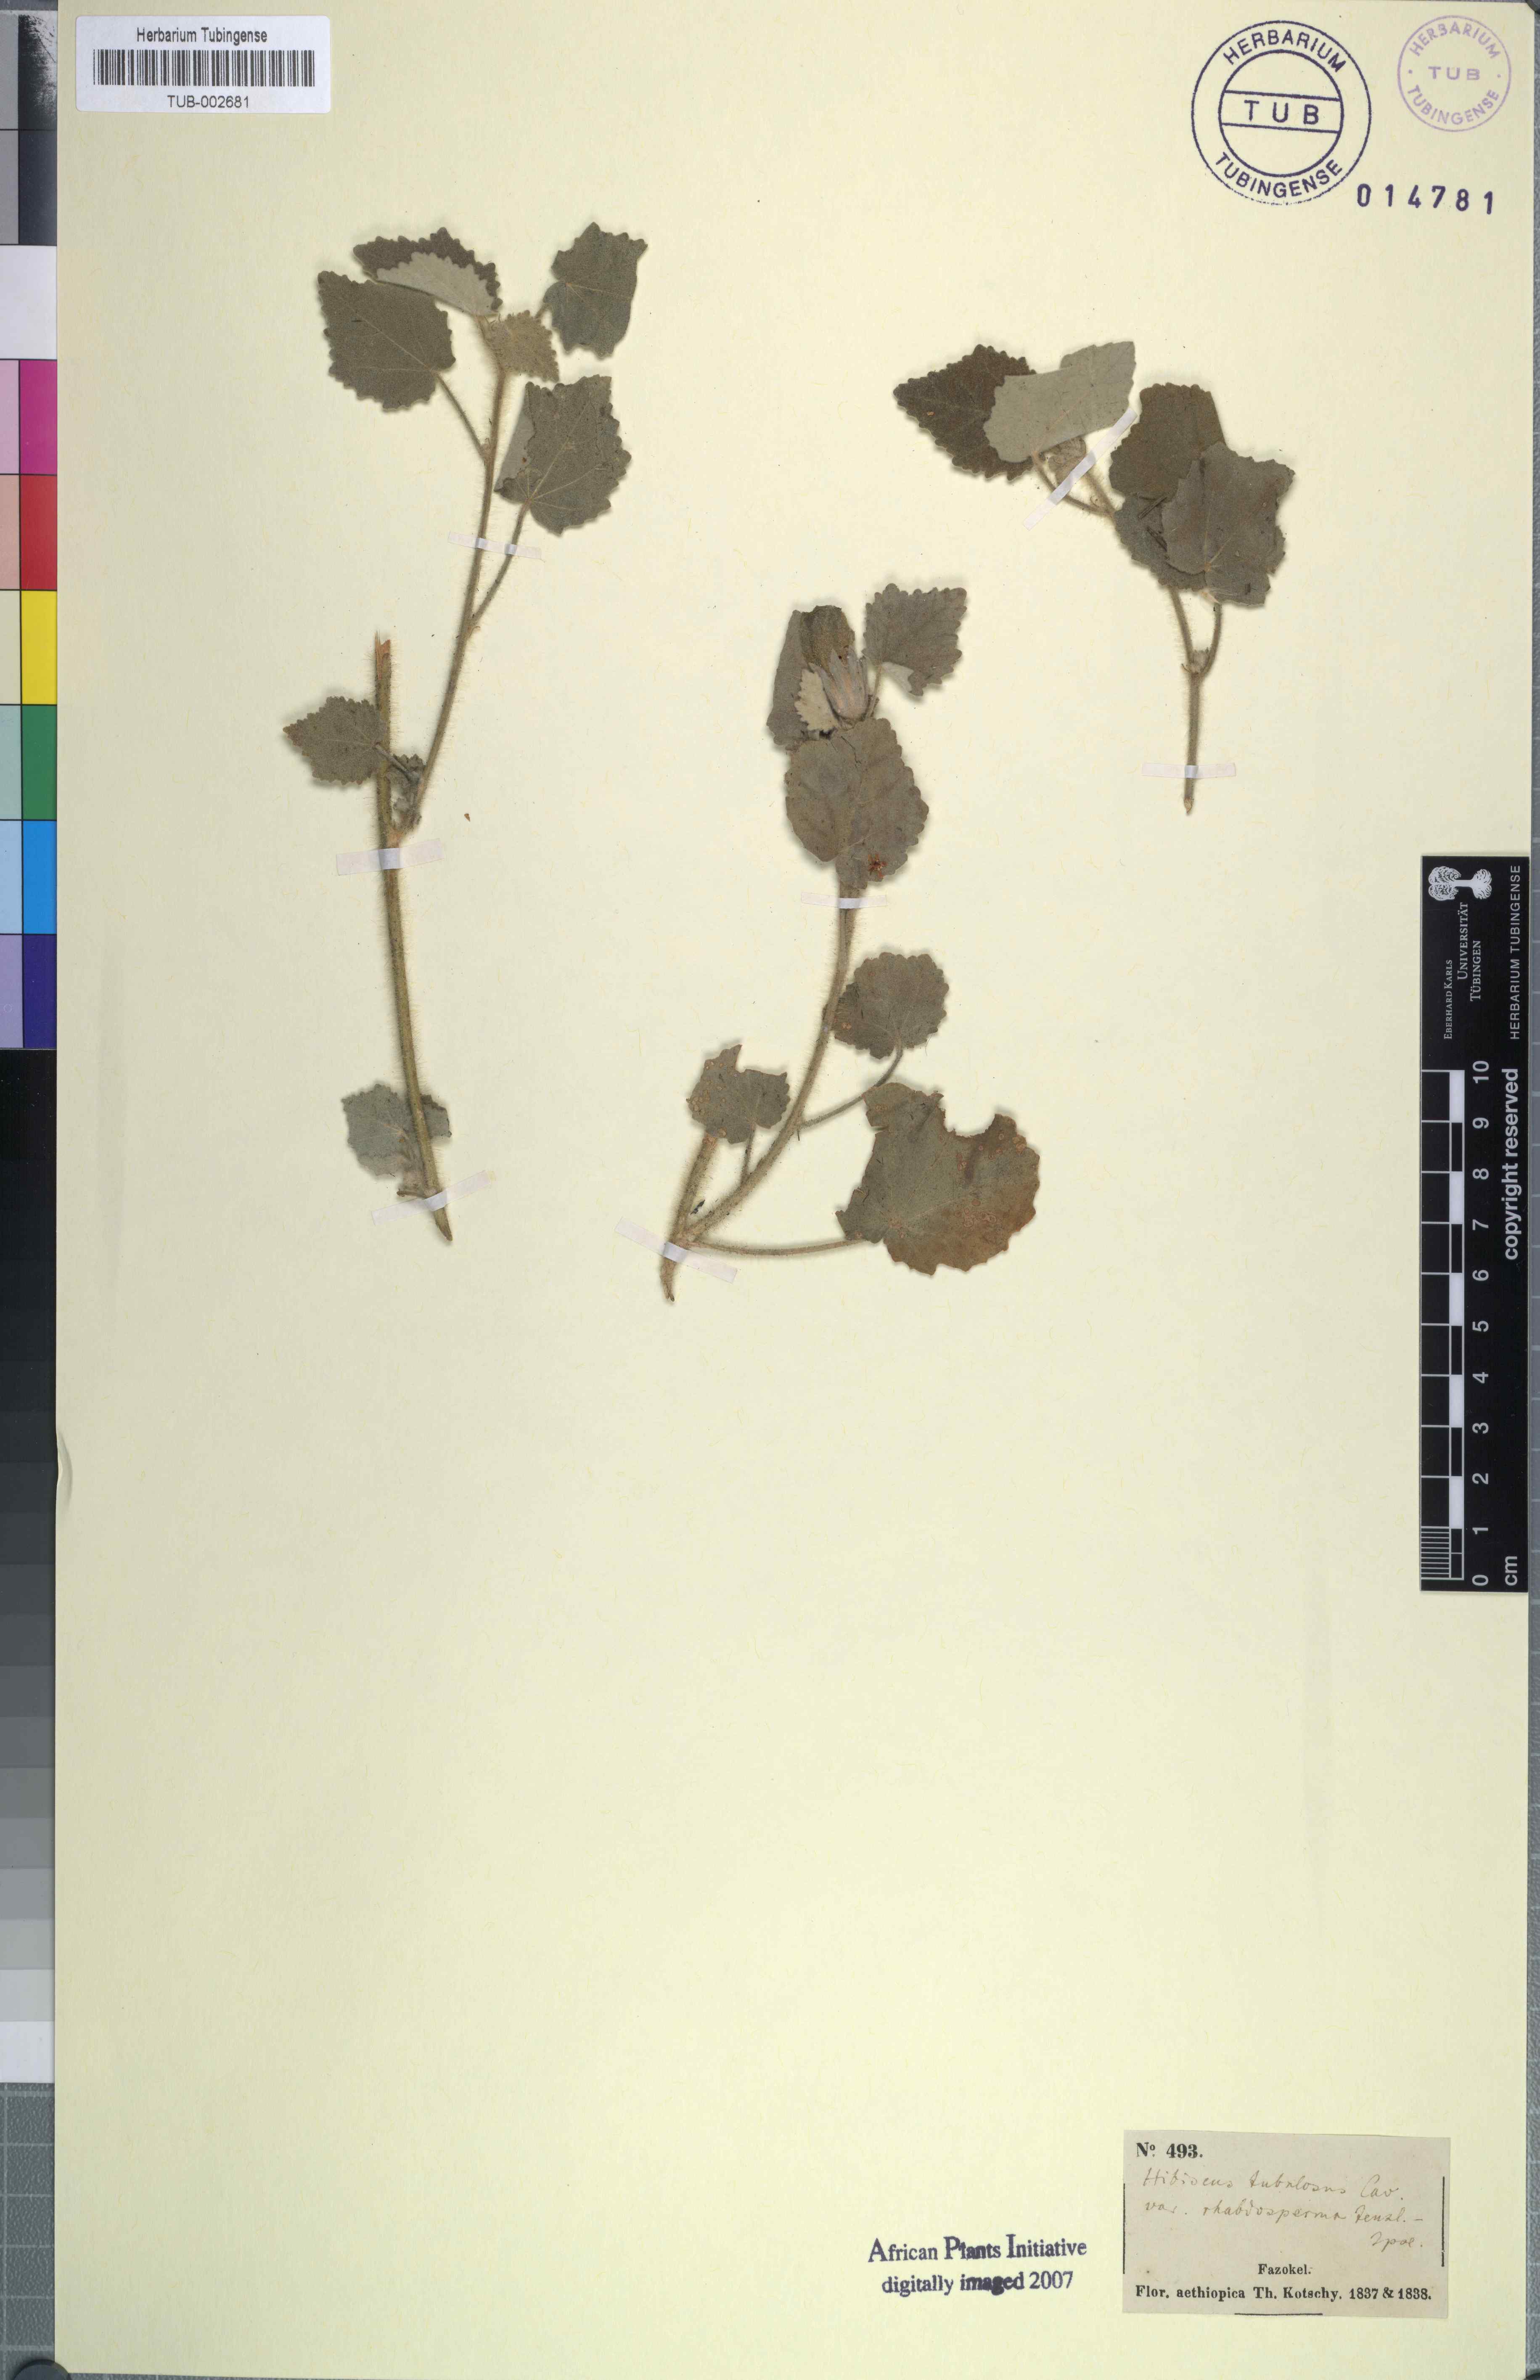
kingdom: Plantae
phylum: Tracheophyta
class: Magnoliopsida
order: Malvales
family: Malvaceae
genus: Hibiscus
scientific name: Hibiscus panduriformis
